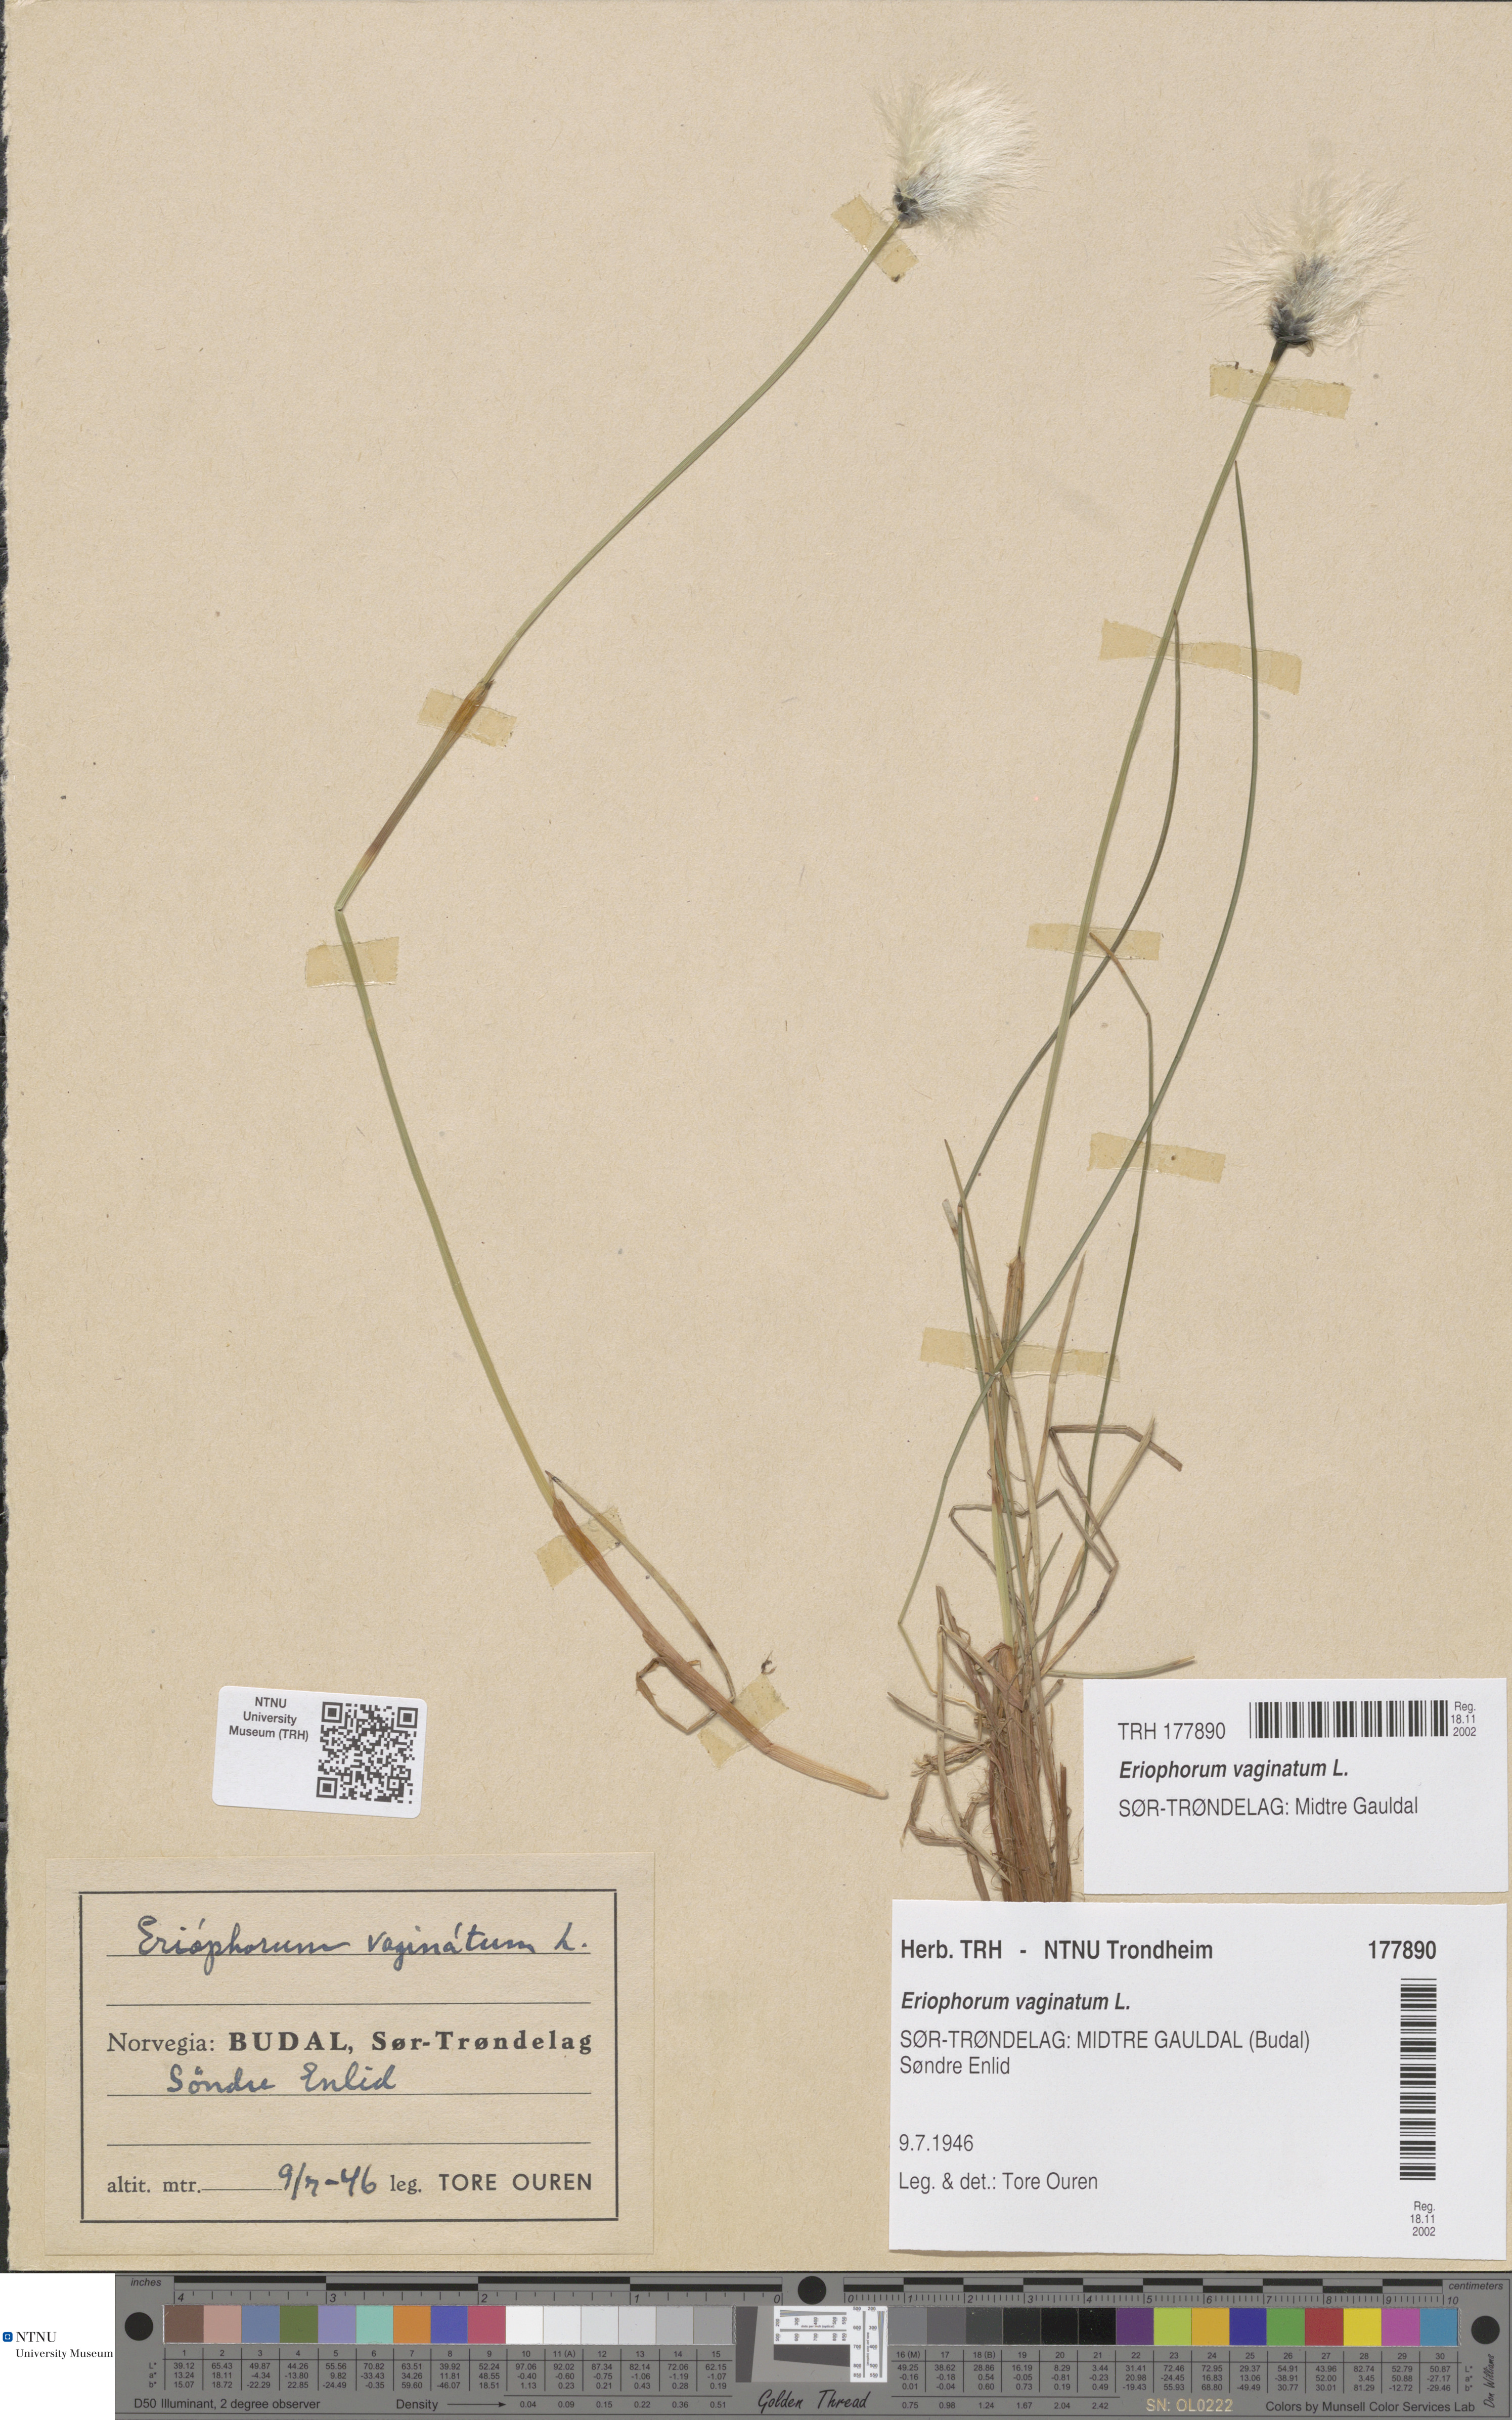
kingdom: Plantae
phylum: Tracheophyta
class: Liliopsida
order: Poales
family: Cyperaceae
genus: Eriophorum
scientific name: Eriophorum vaginatum
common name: Hare's-tail cottongrass
